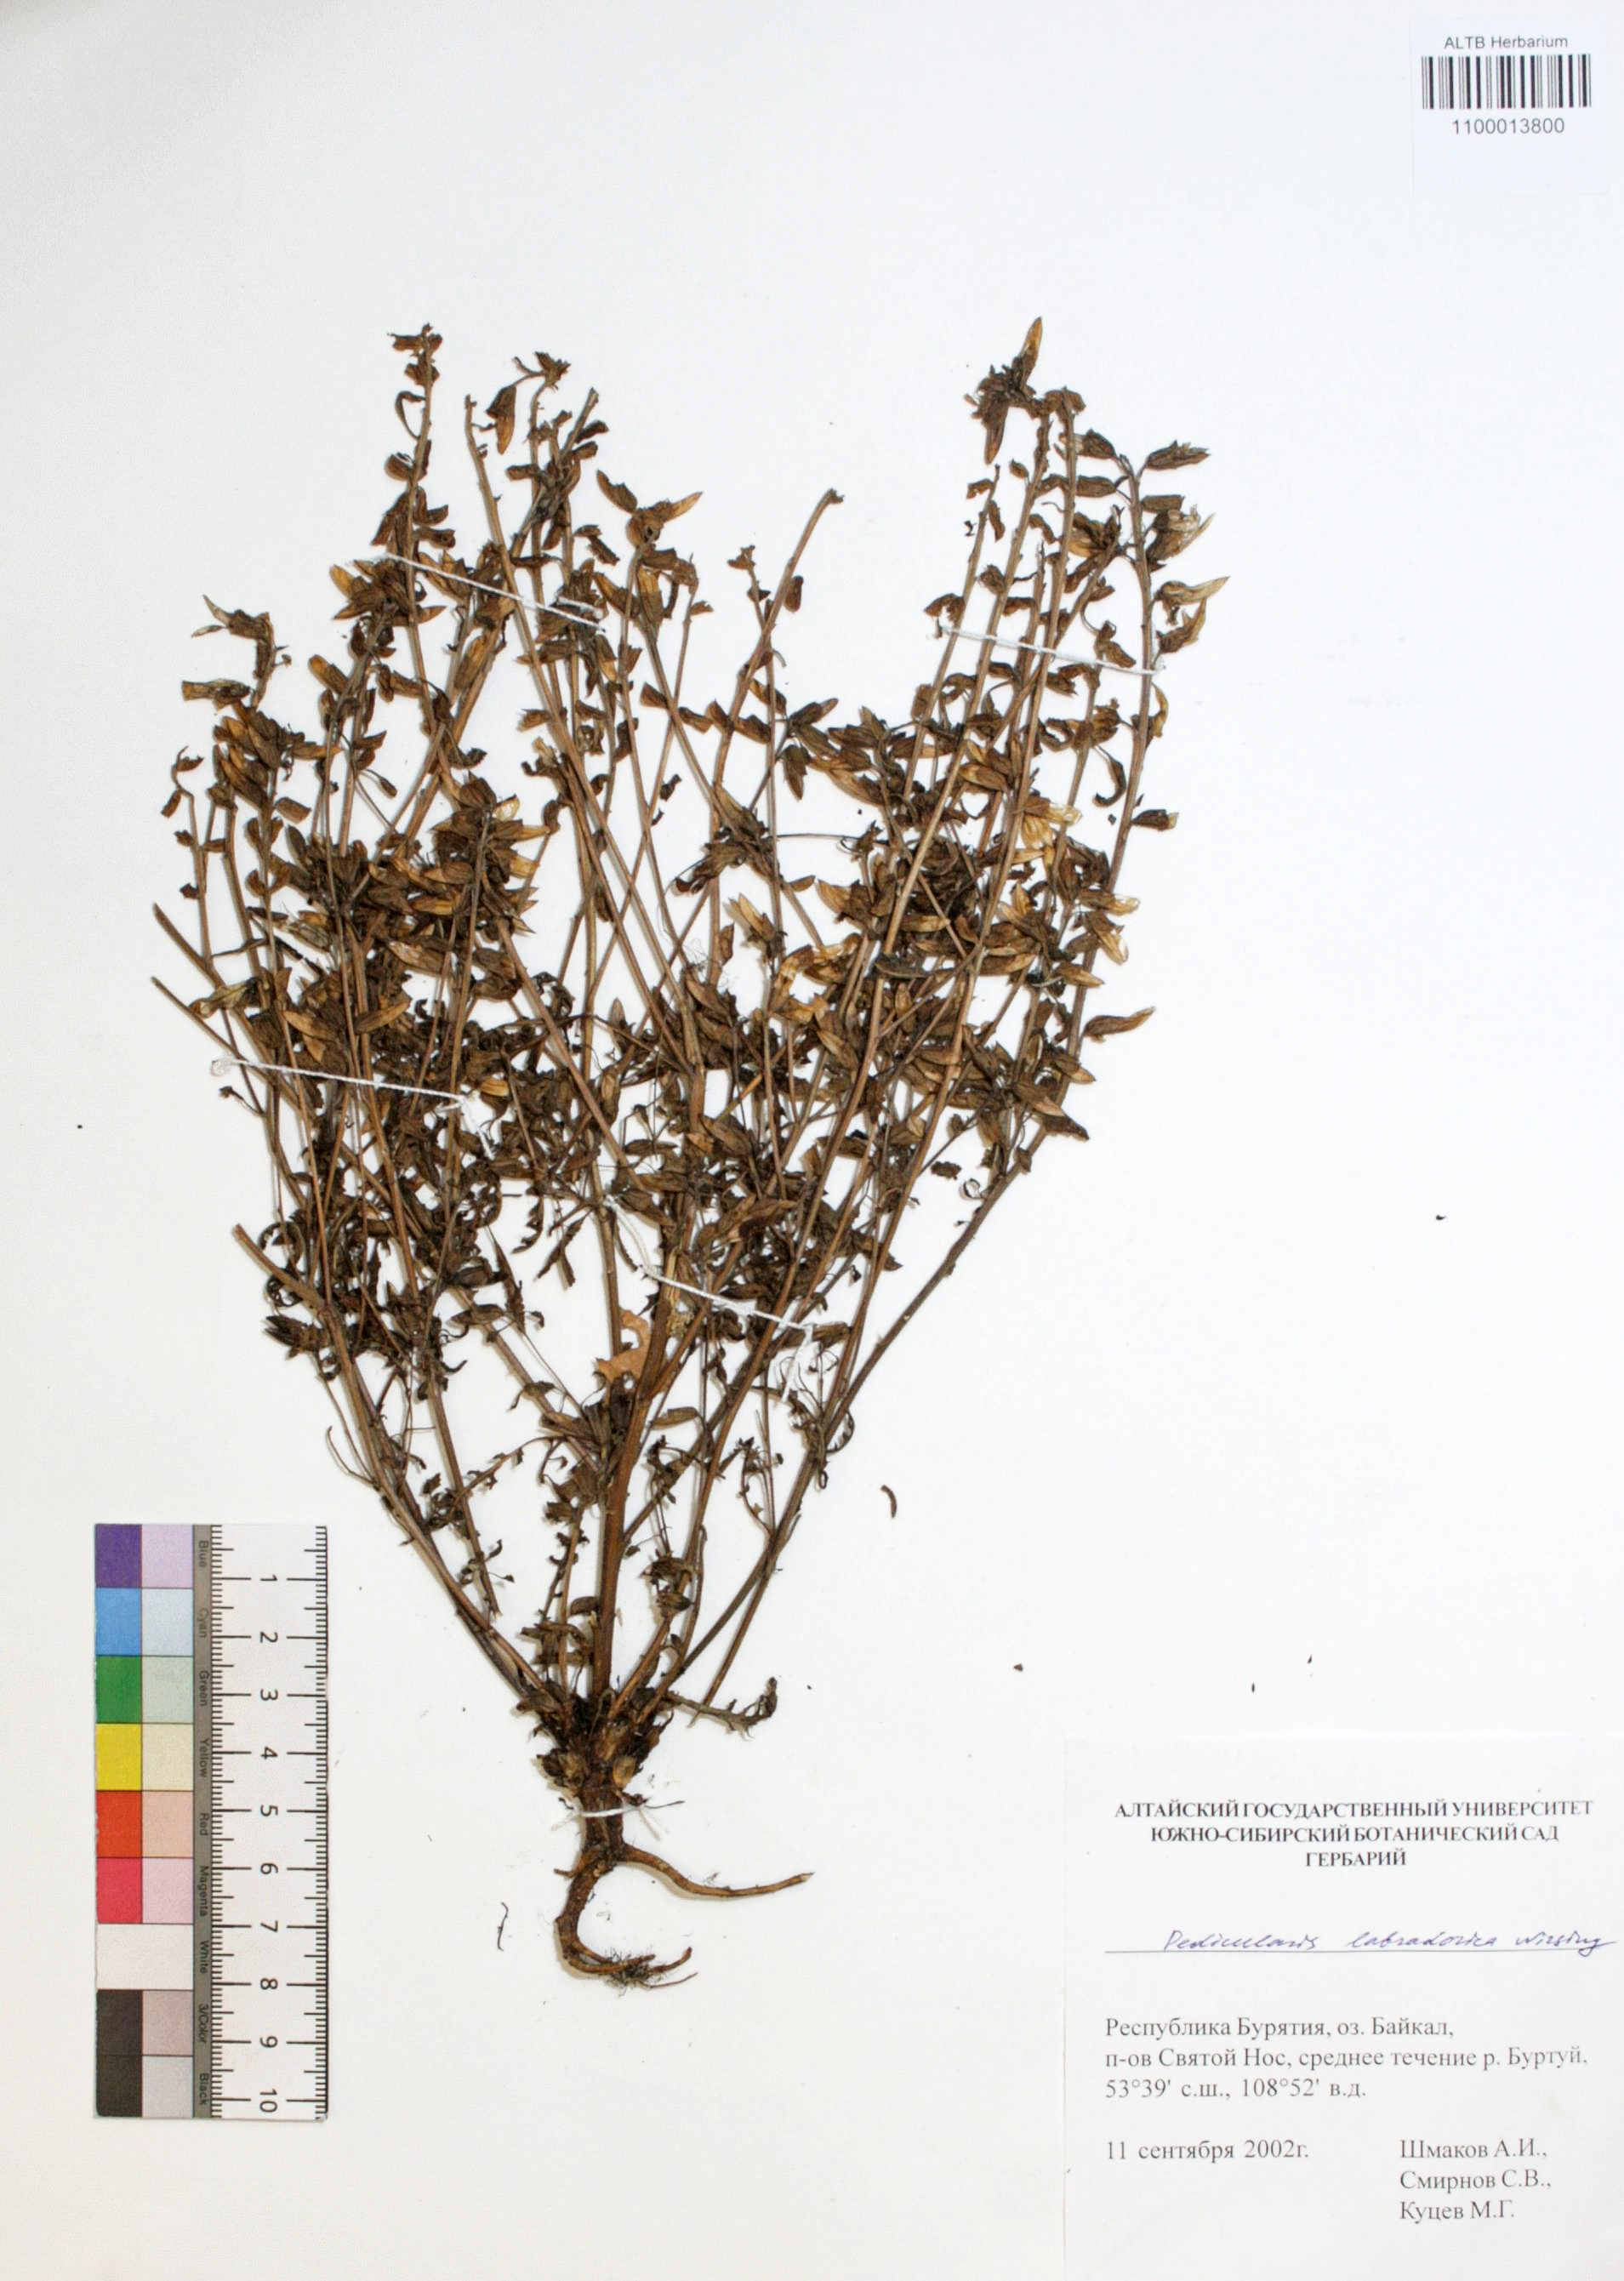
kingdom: Plantae
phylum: Tracheophyta
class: Magnoliopsida
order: Lamiales
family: Orobanchaceae
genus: Pedicularis
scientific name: Pedicularis labradorica
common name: Labrador lousewort
